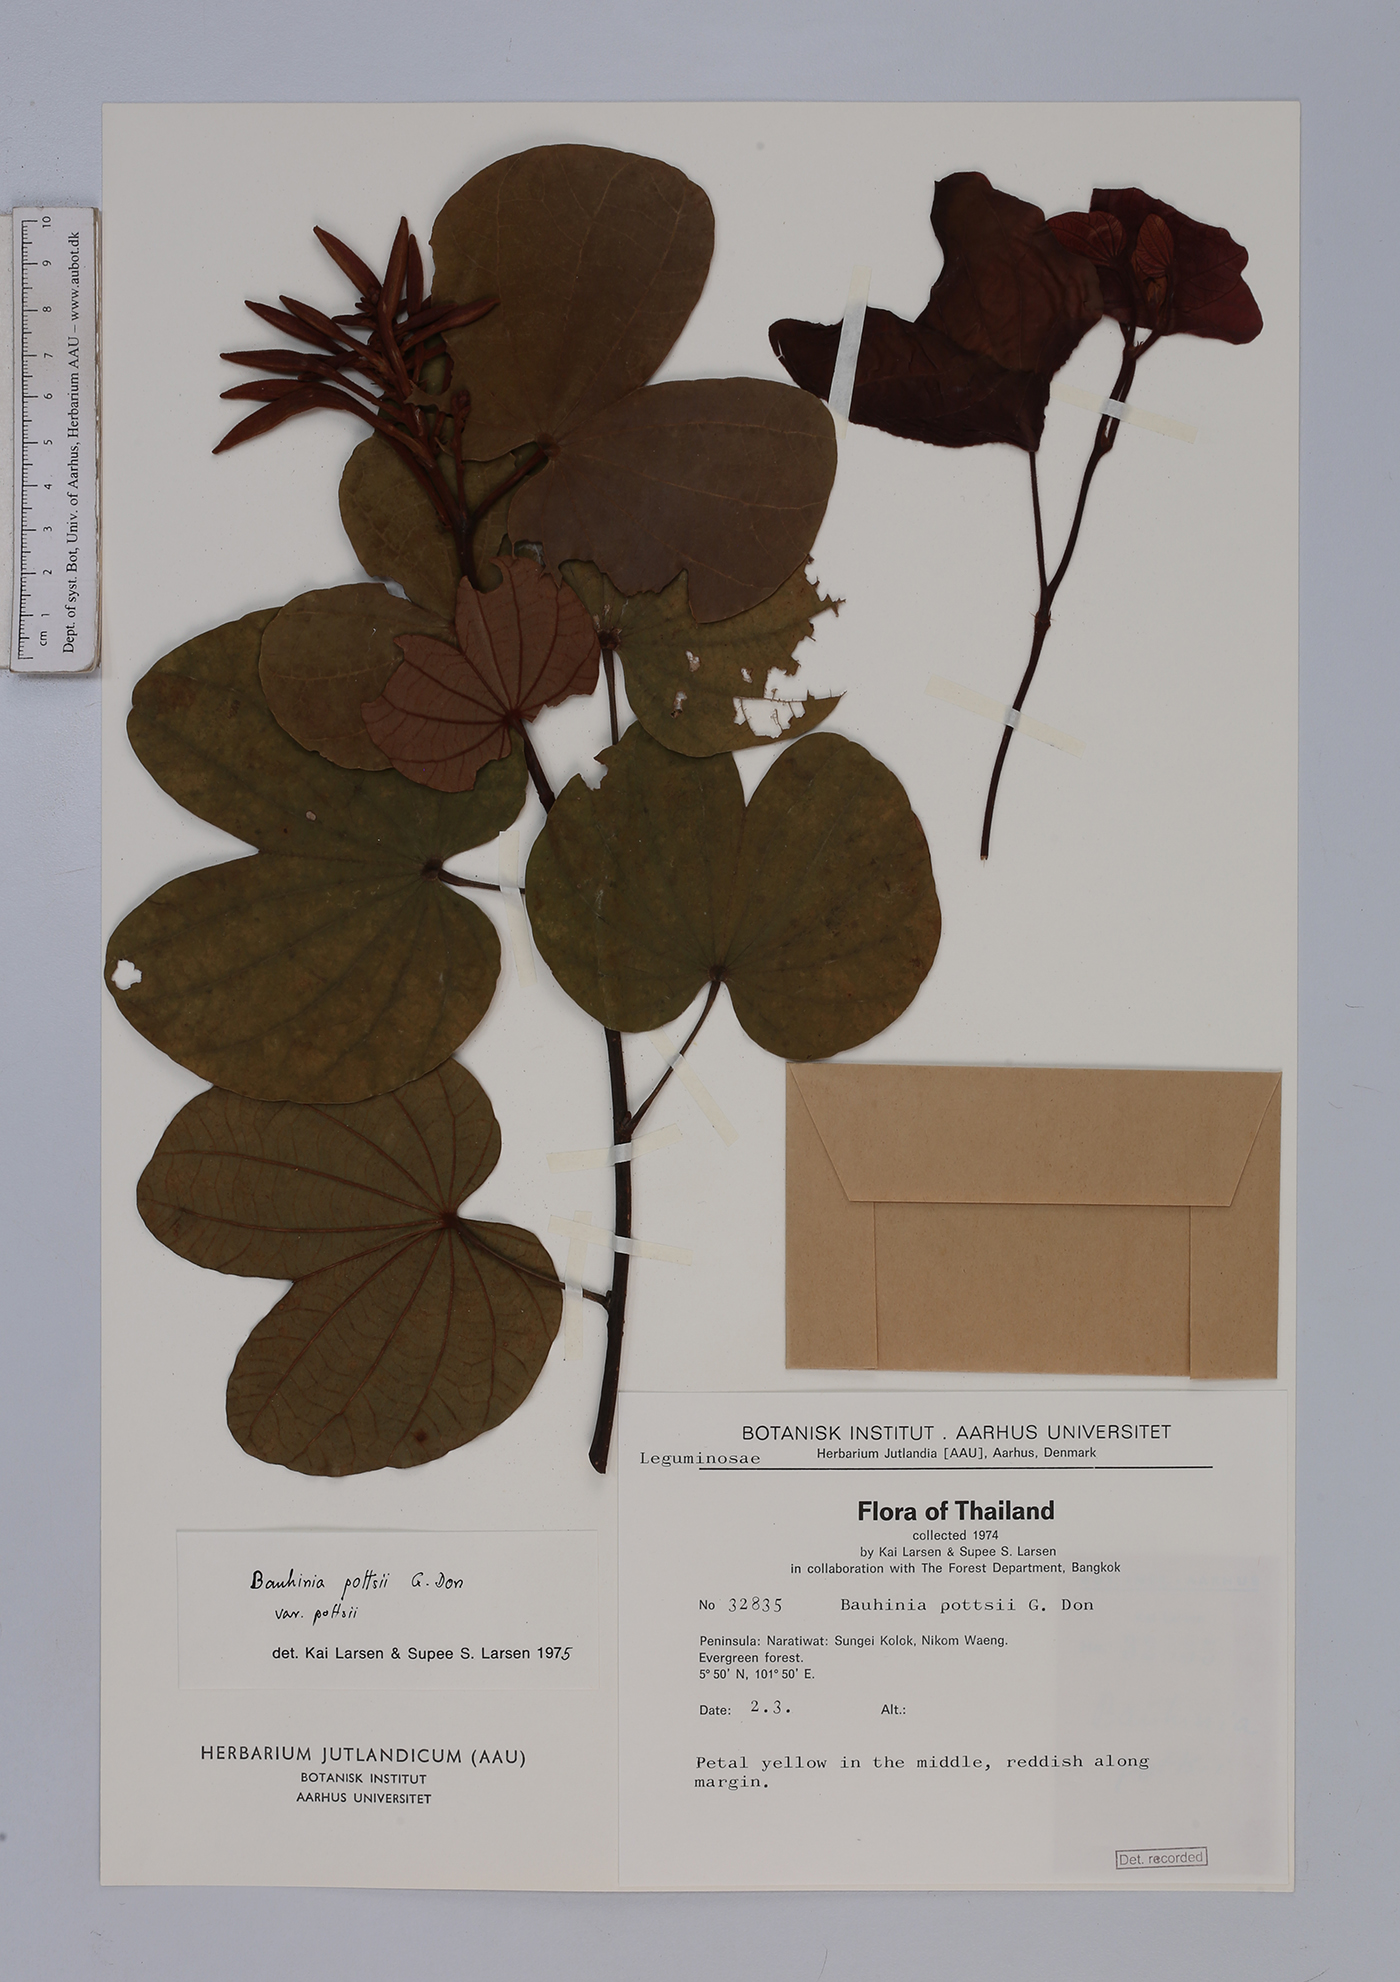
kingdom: Plantae
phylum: Tracheophyta
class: Magnoliopsida
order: Fabales
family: Fabaceae
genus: Bauhinia
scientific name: Bauhinia pottsii
